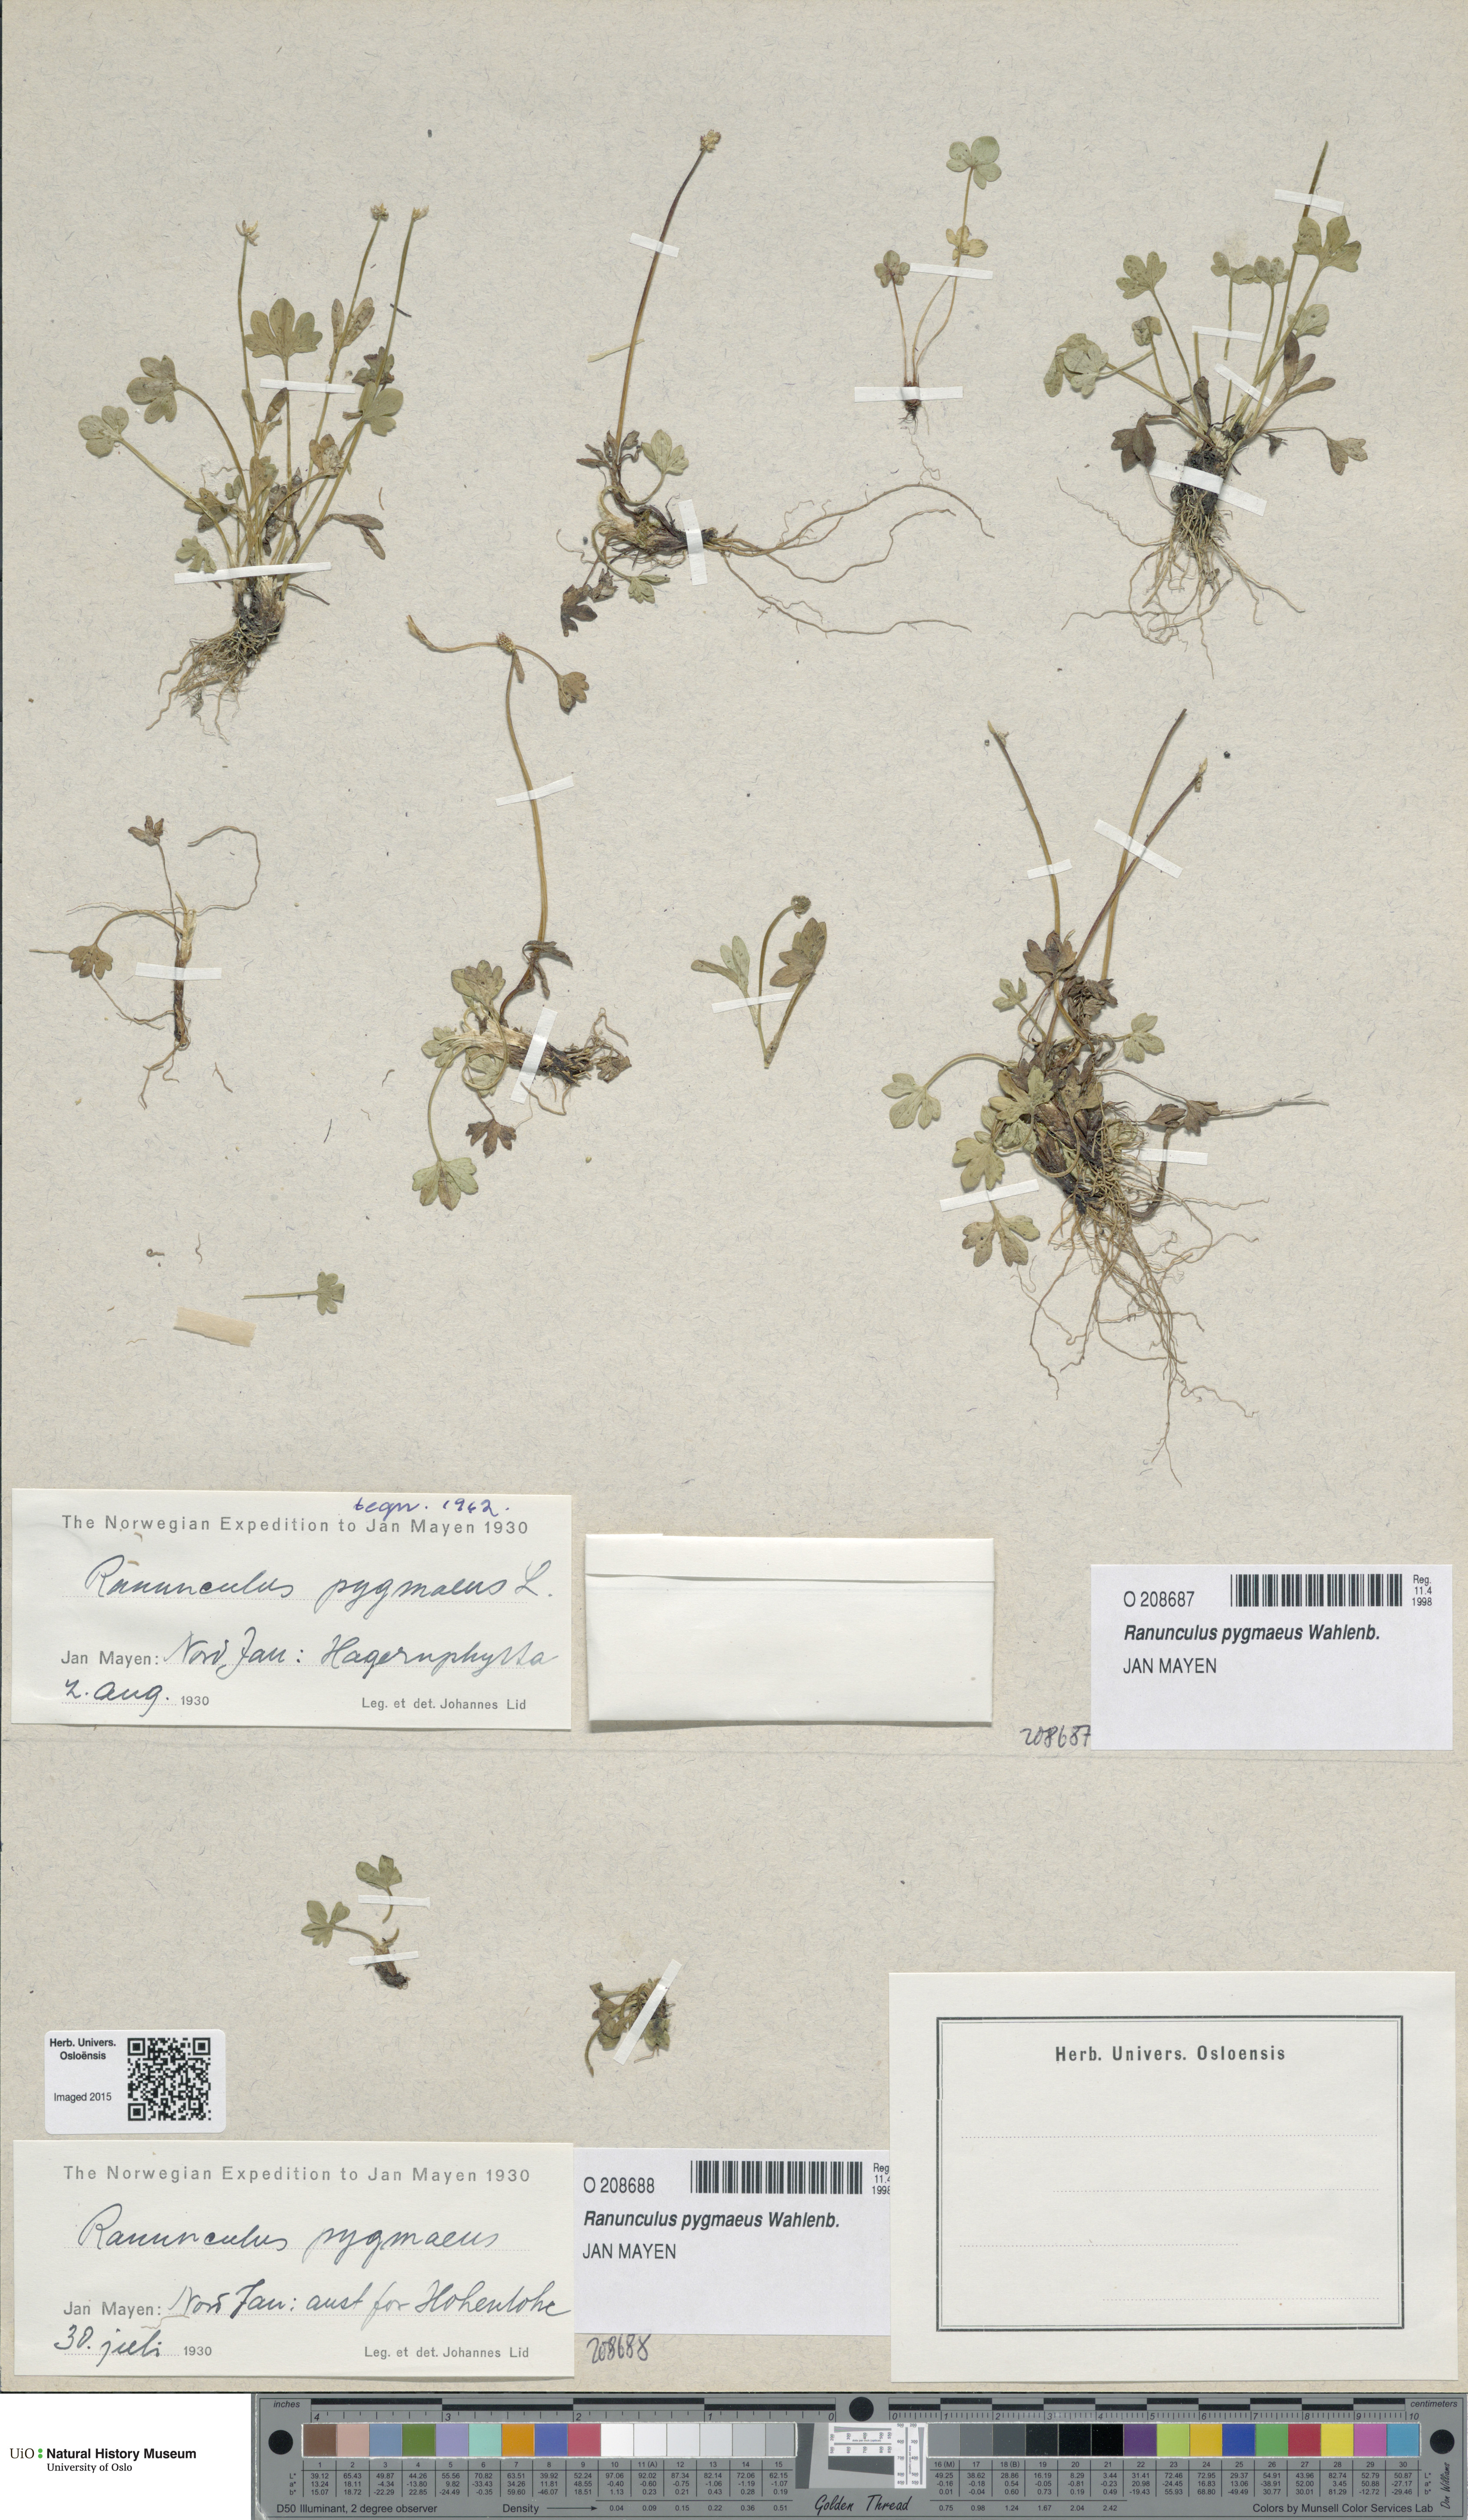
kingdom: Plantae
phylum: Tracheophyta
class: Magnoliopsida
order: Ranunculales
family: Ranunculaceae
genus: Ranunculus
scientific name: Ranunculus pygmaeus
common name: Dwarf buttercup
